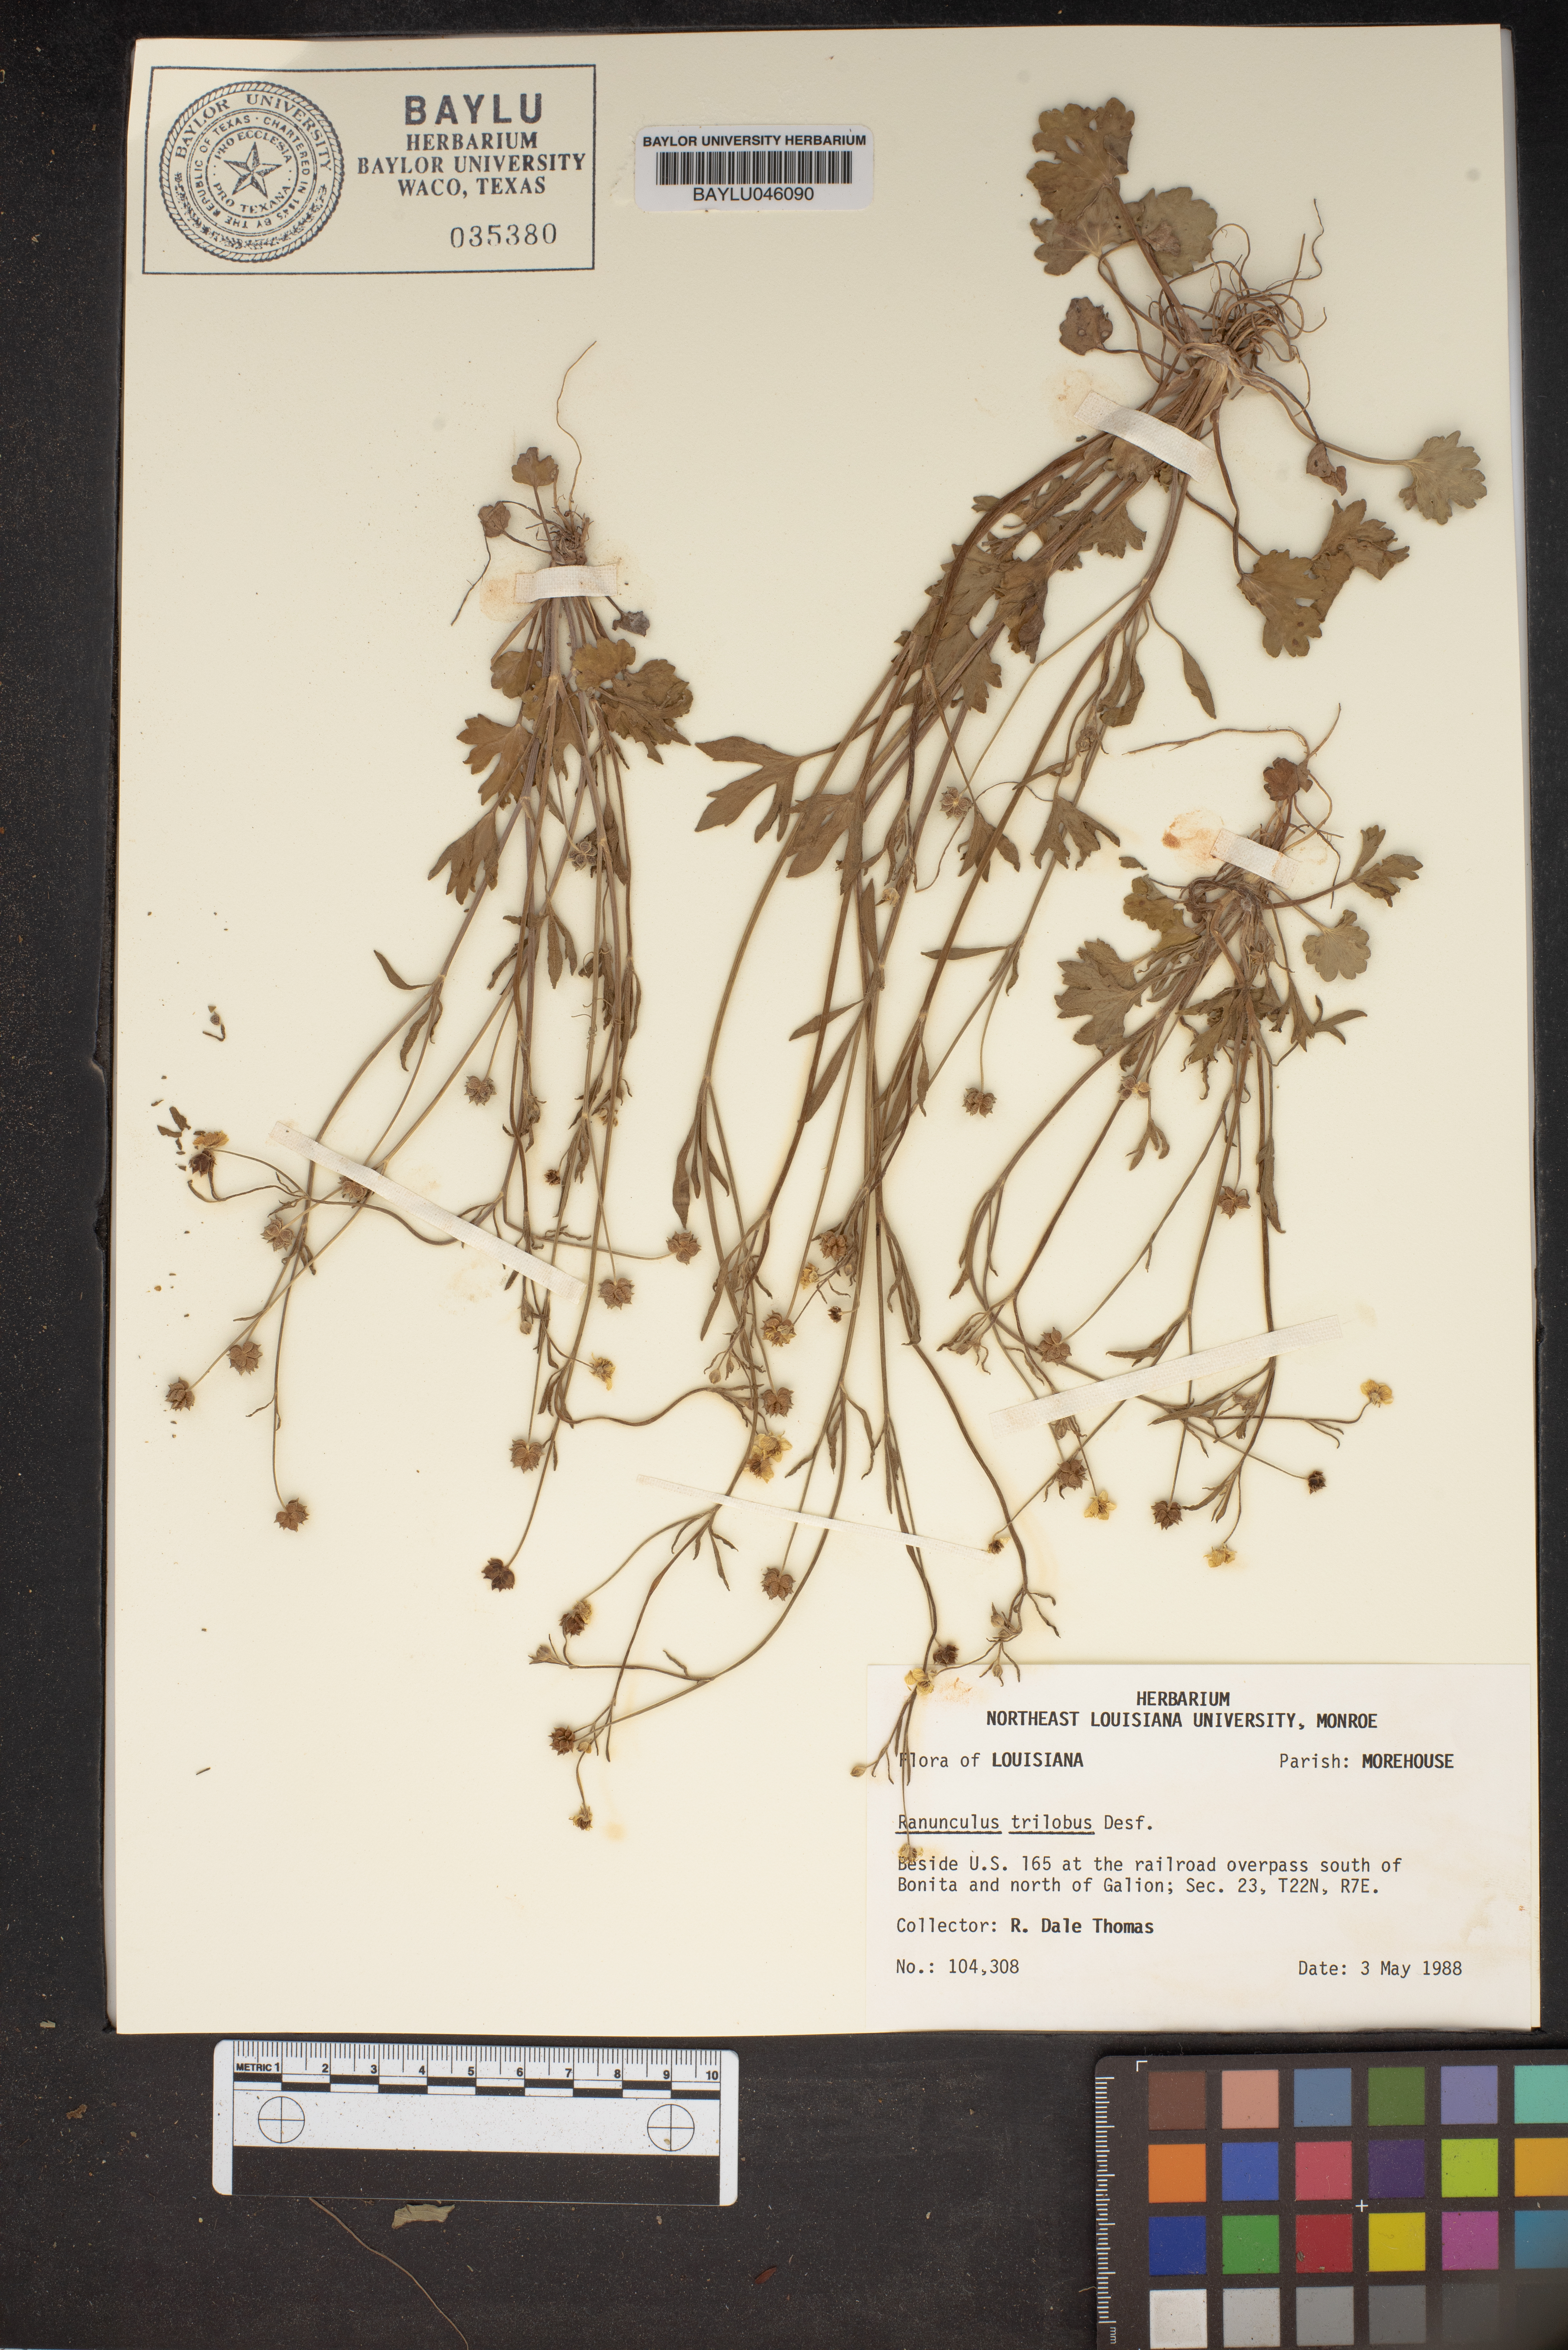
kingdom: Plantae
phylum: Tracheophyta
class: Magnoliopsida
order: Ranunculales
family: Ranunculaceae
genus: Ranunculus
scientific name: Ranunculus trilobus
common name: Threelobe buttercup
